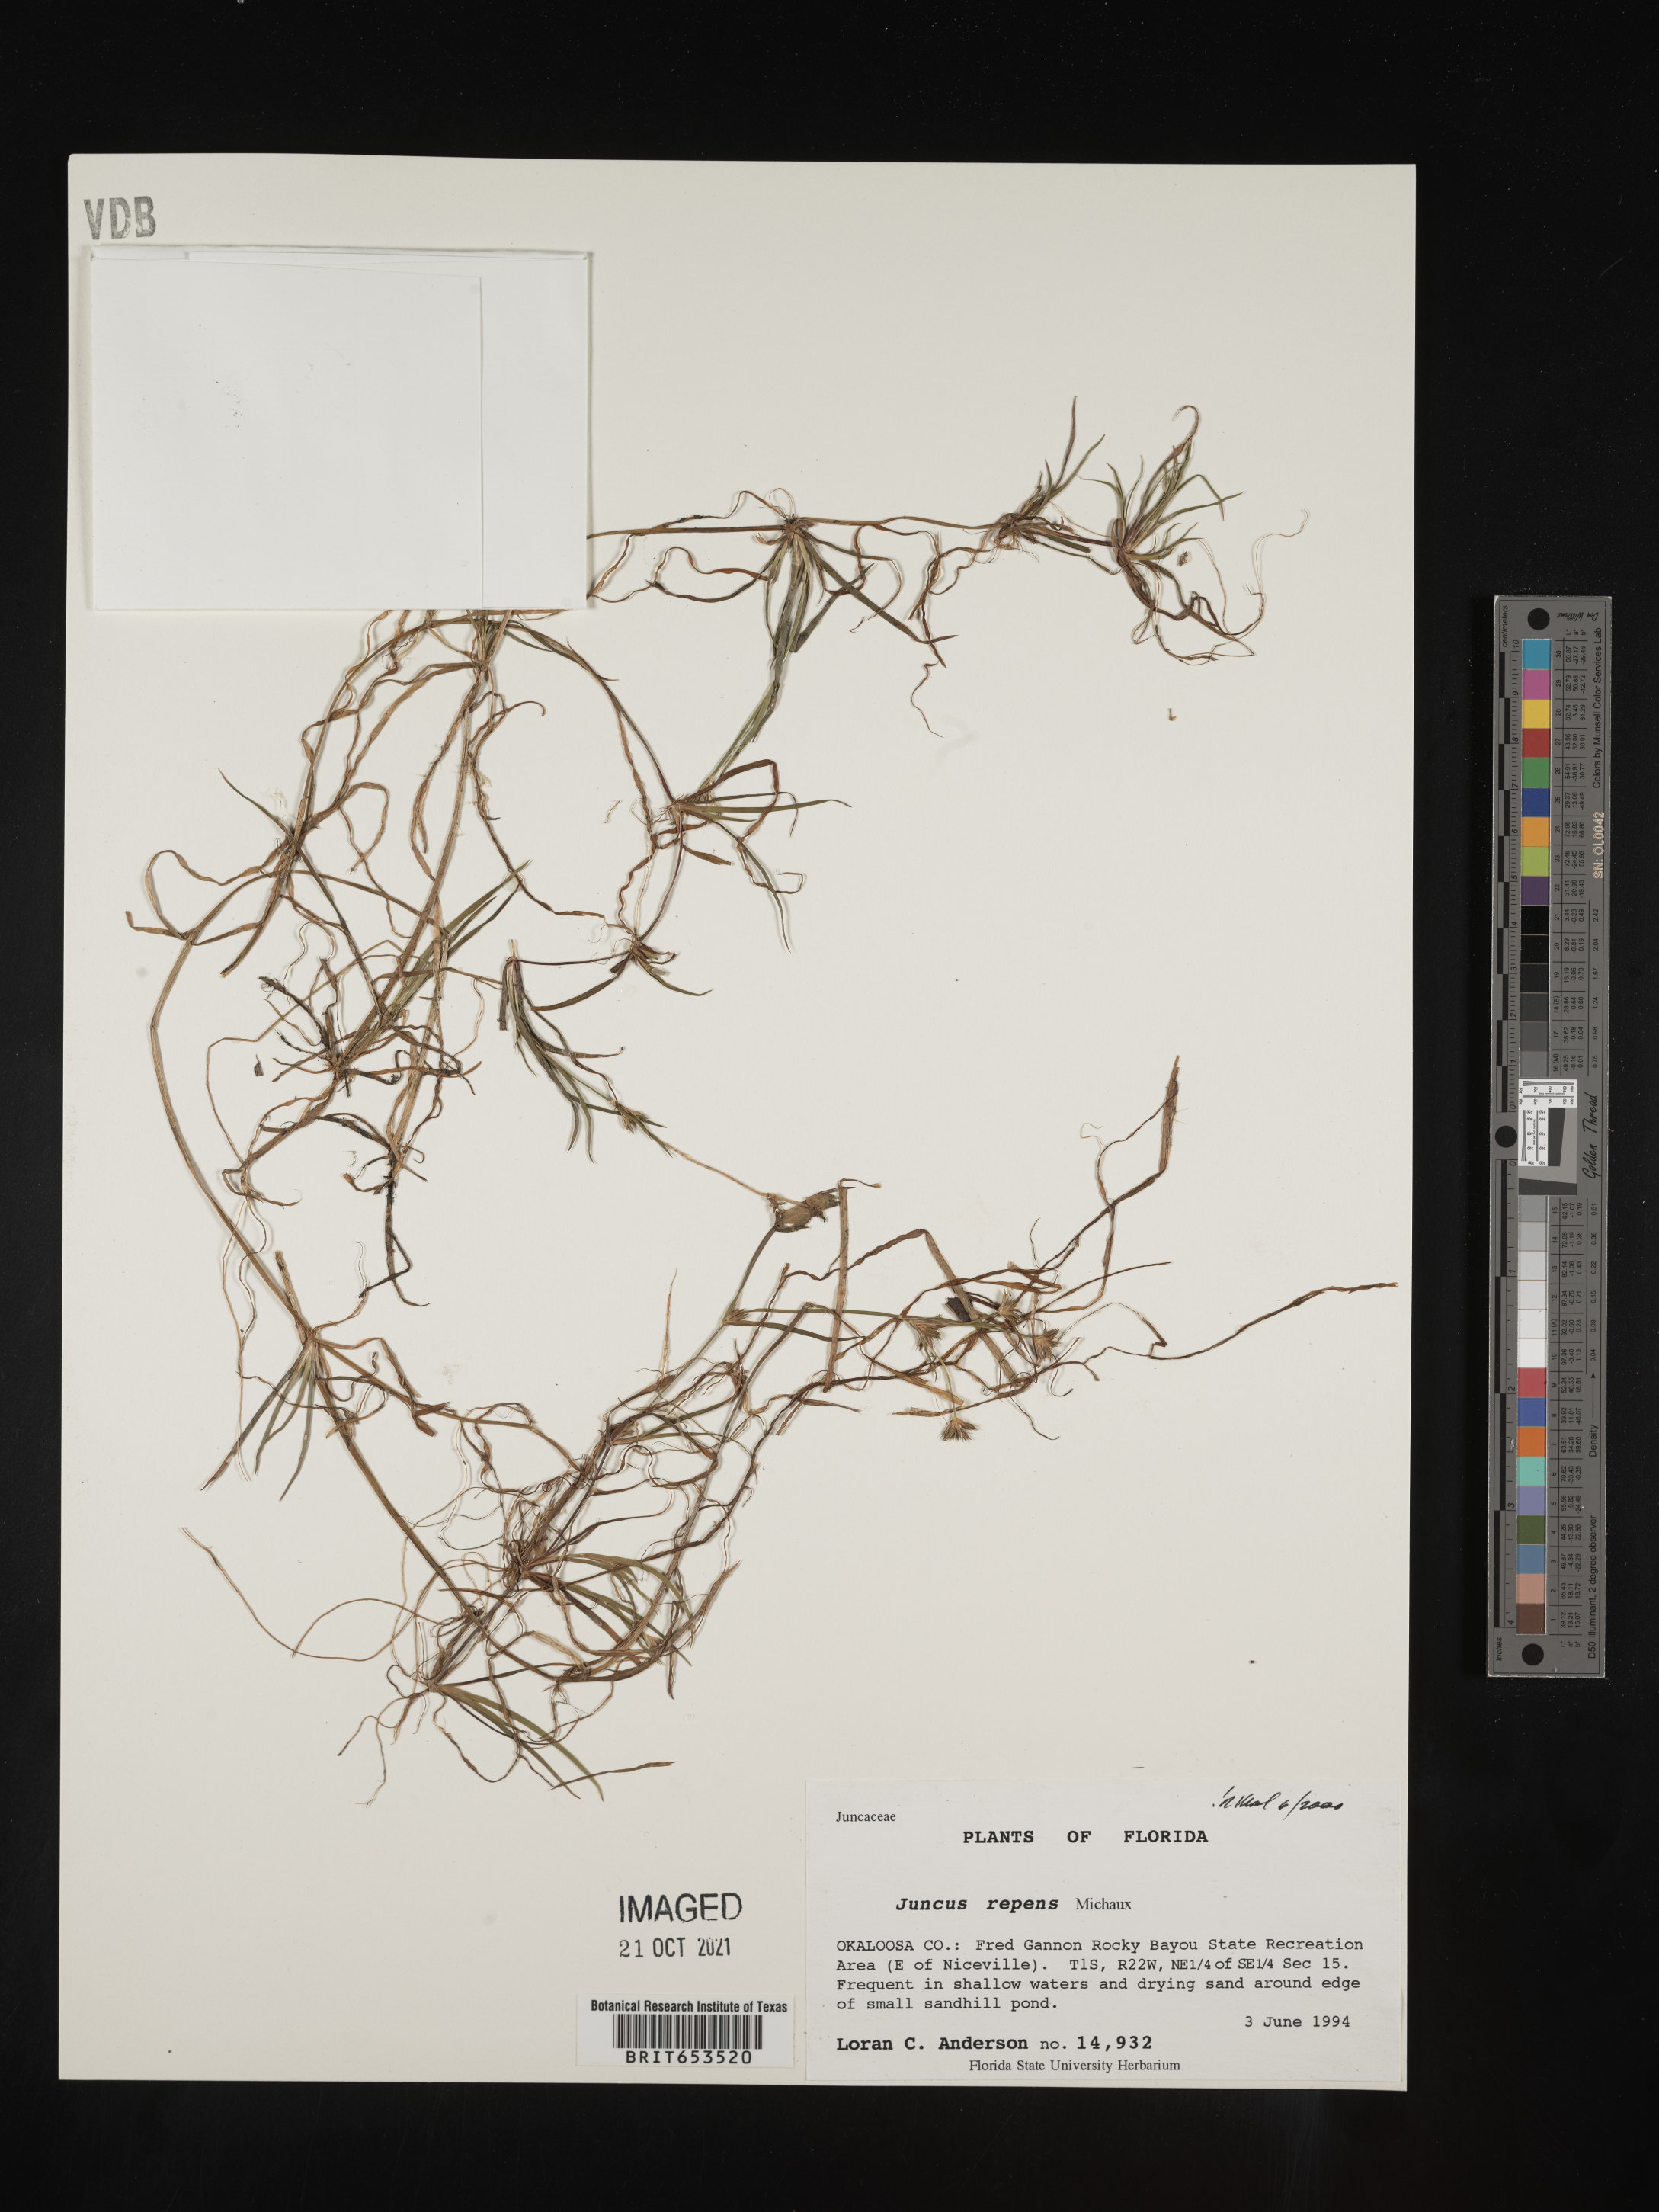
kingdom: Plantae
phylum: Tracheophyta
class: Liliopsida
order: Poales
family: Juncaceae
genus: Juncus
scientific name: Juncus repens
